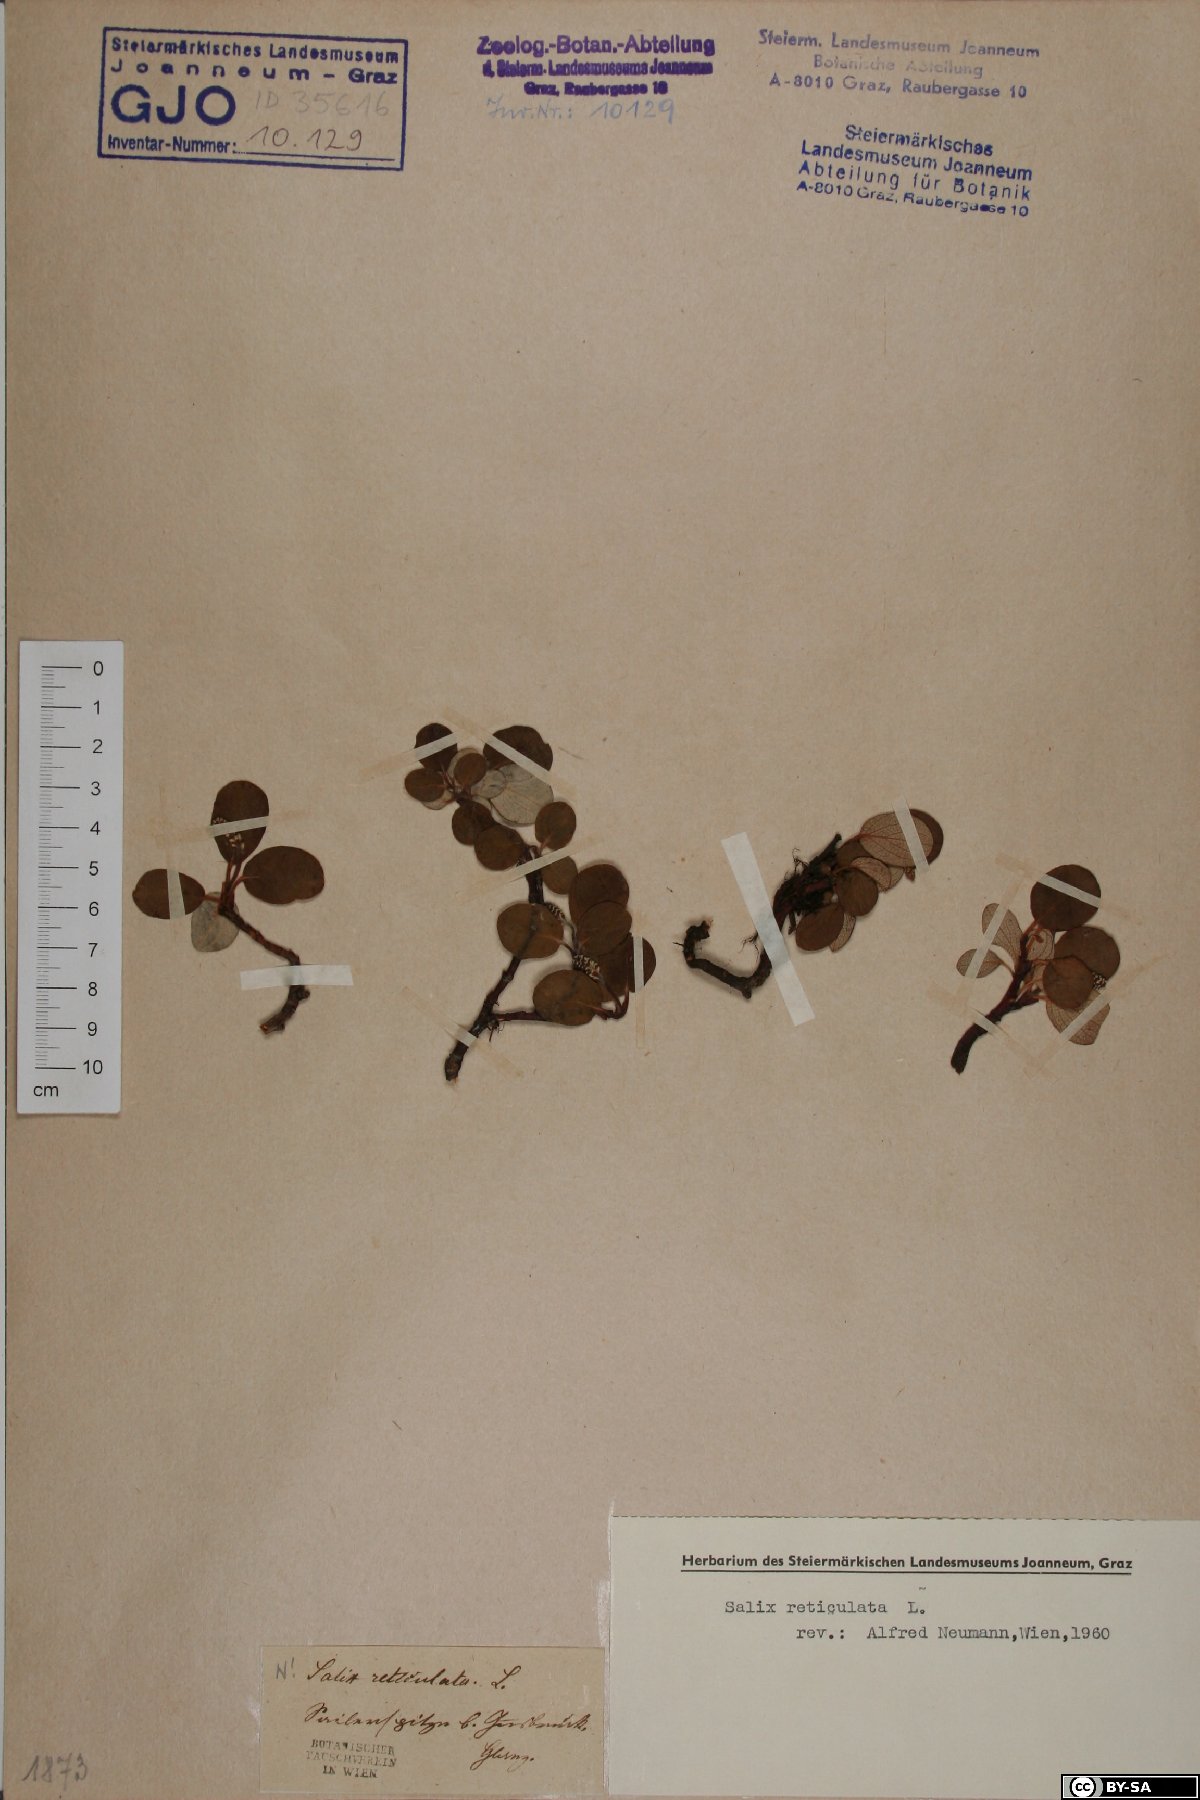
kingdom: Plantae
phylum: Tracheophyta
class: Magnoliopsida
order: Malpighiales
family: Salicaceae
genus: Salix
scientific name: Salix reticulata
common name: Net-leaved willow
